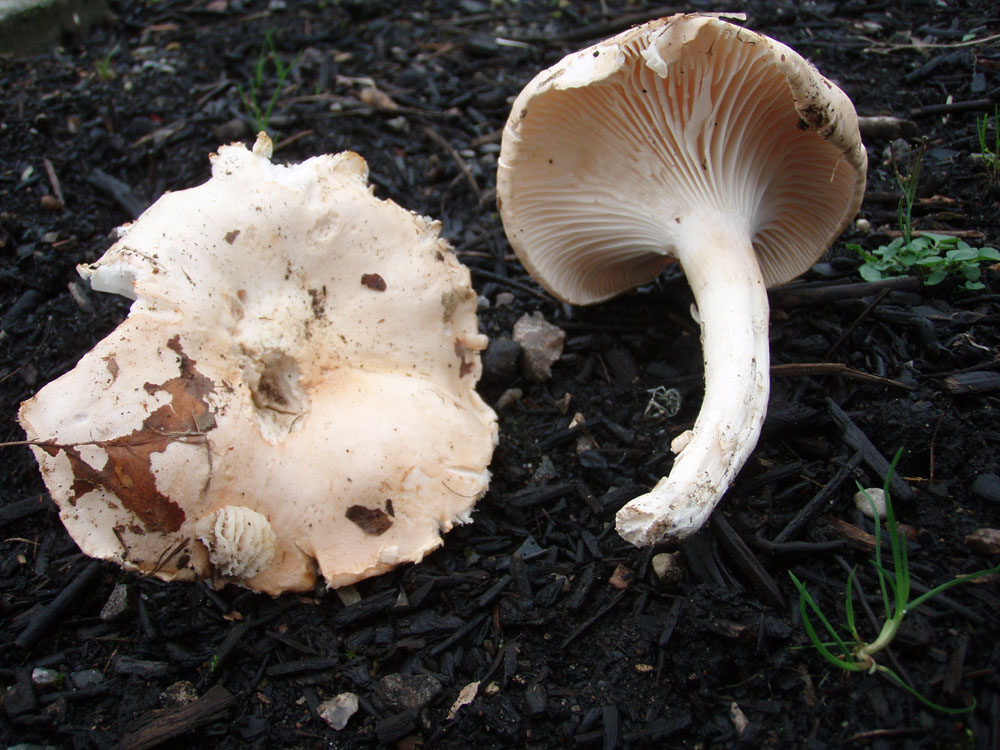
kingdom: Fungi
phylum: Basidiomycota
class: Agaricomycetes
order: Agaricales
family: Hygrophoraceae
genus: Hygrophorus
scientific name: Hygrophorus poetarum
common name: duftende sneglehat
